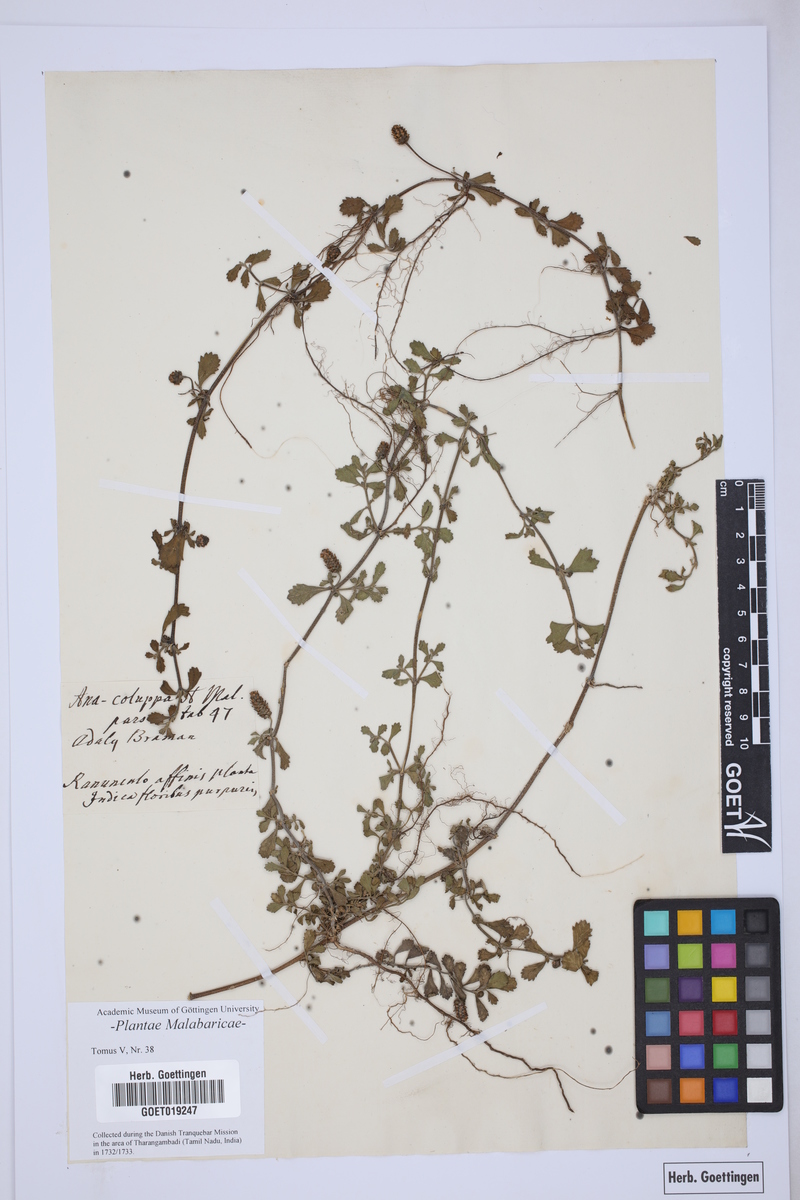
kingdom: Plantae
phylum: Tracheophyta
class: Magnoliopsida
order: Lamiales
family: Verbenaceae
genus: Phyla
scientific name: Phyla nodiflora
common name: Frogfruit
